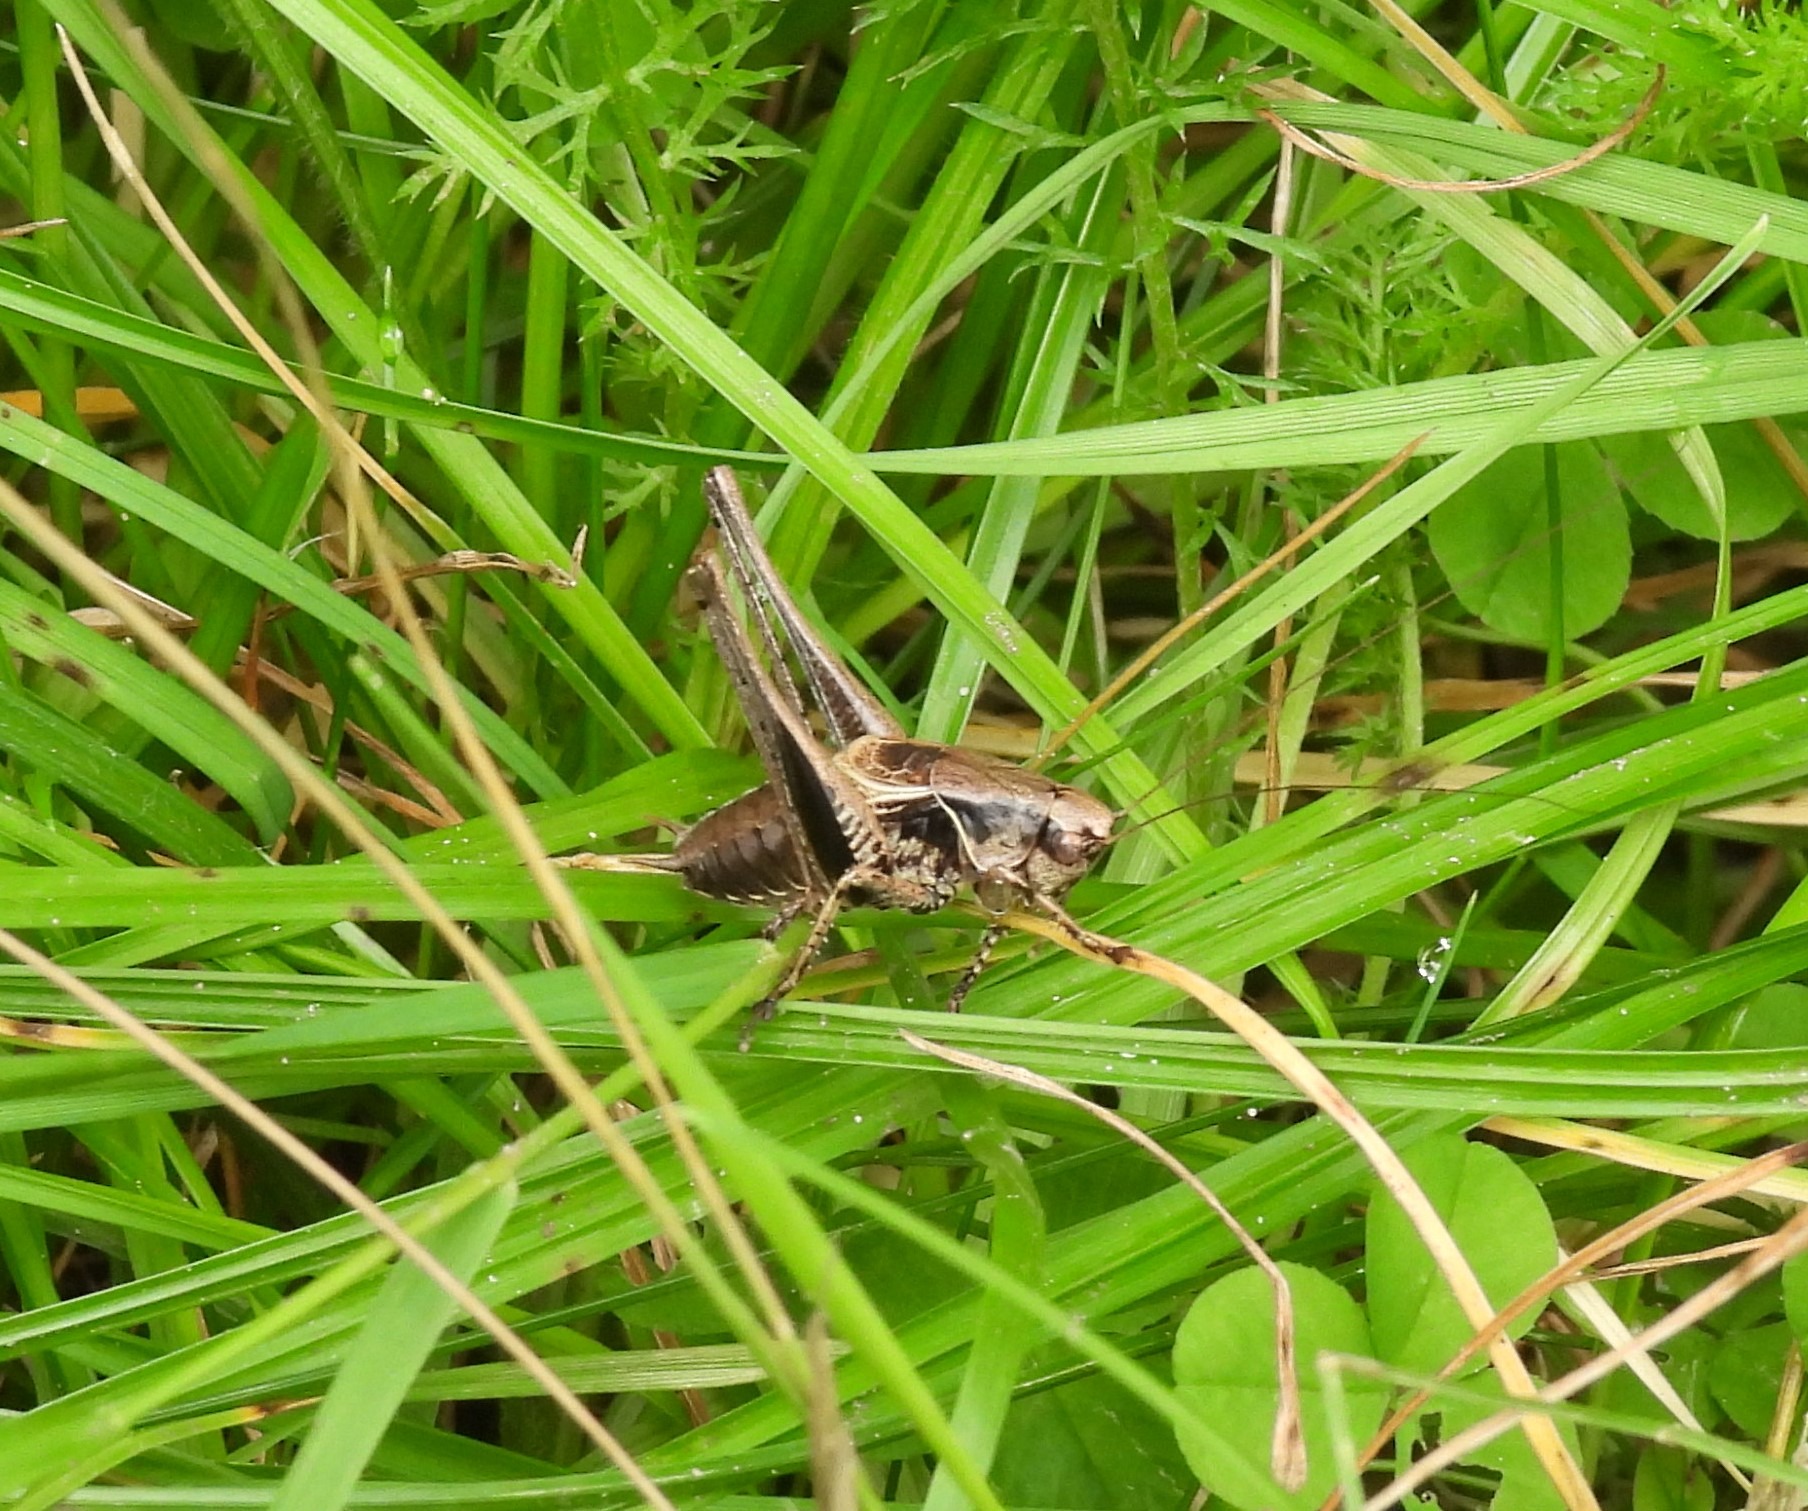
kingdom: Animalia
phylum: Arthropoda
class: Insecta
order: Orthoptera
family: Tettigoniidae
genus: Pholidoptera
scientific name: Pholidoptera griseoaptera
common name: Buskgræshoppe
